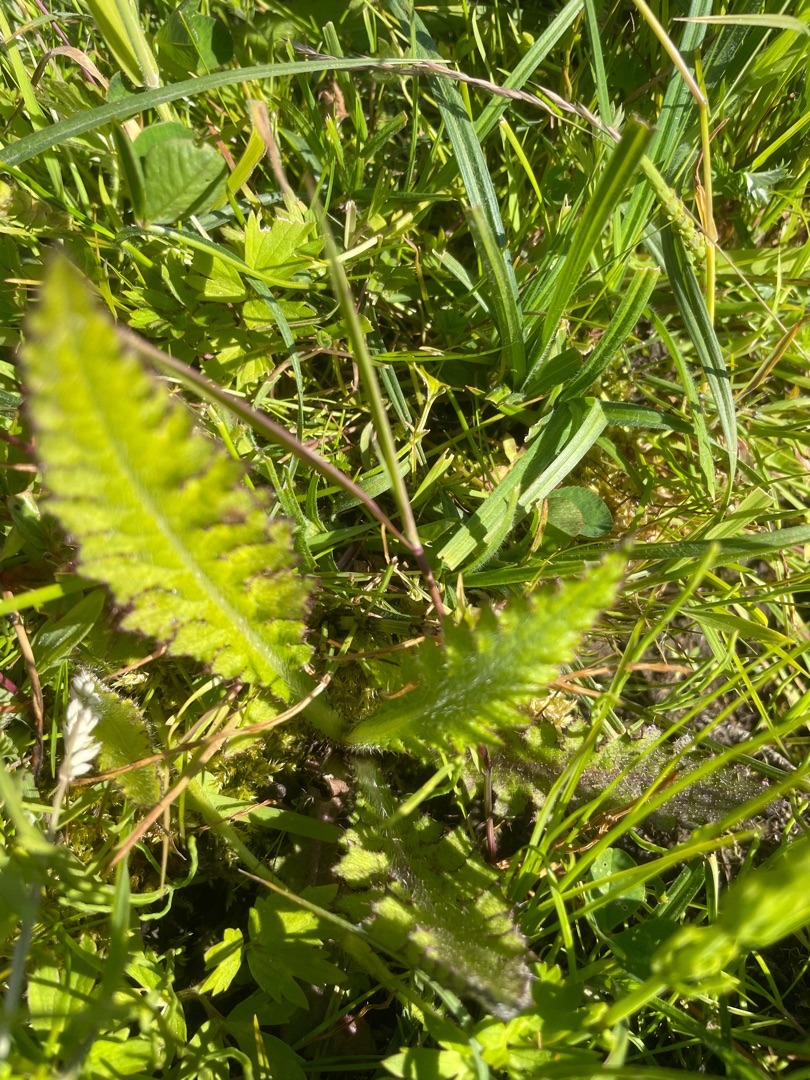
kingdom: Plantae
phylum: Tracheophyta
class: Magnoliopsida
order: Asterales
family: Asteraceae
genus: Cirsium
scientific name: Cirsium palustre
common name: Kær-tidsel
